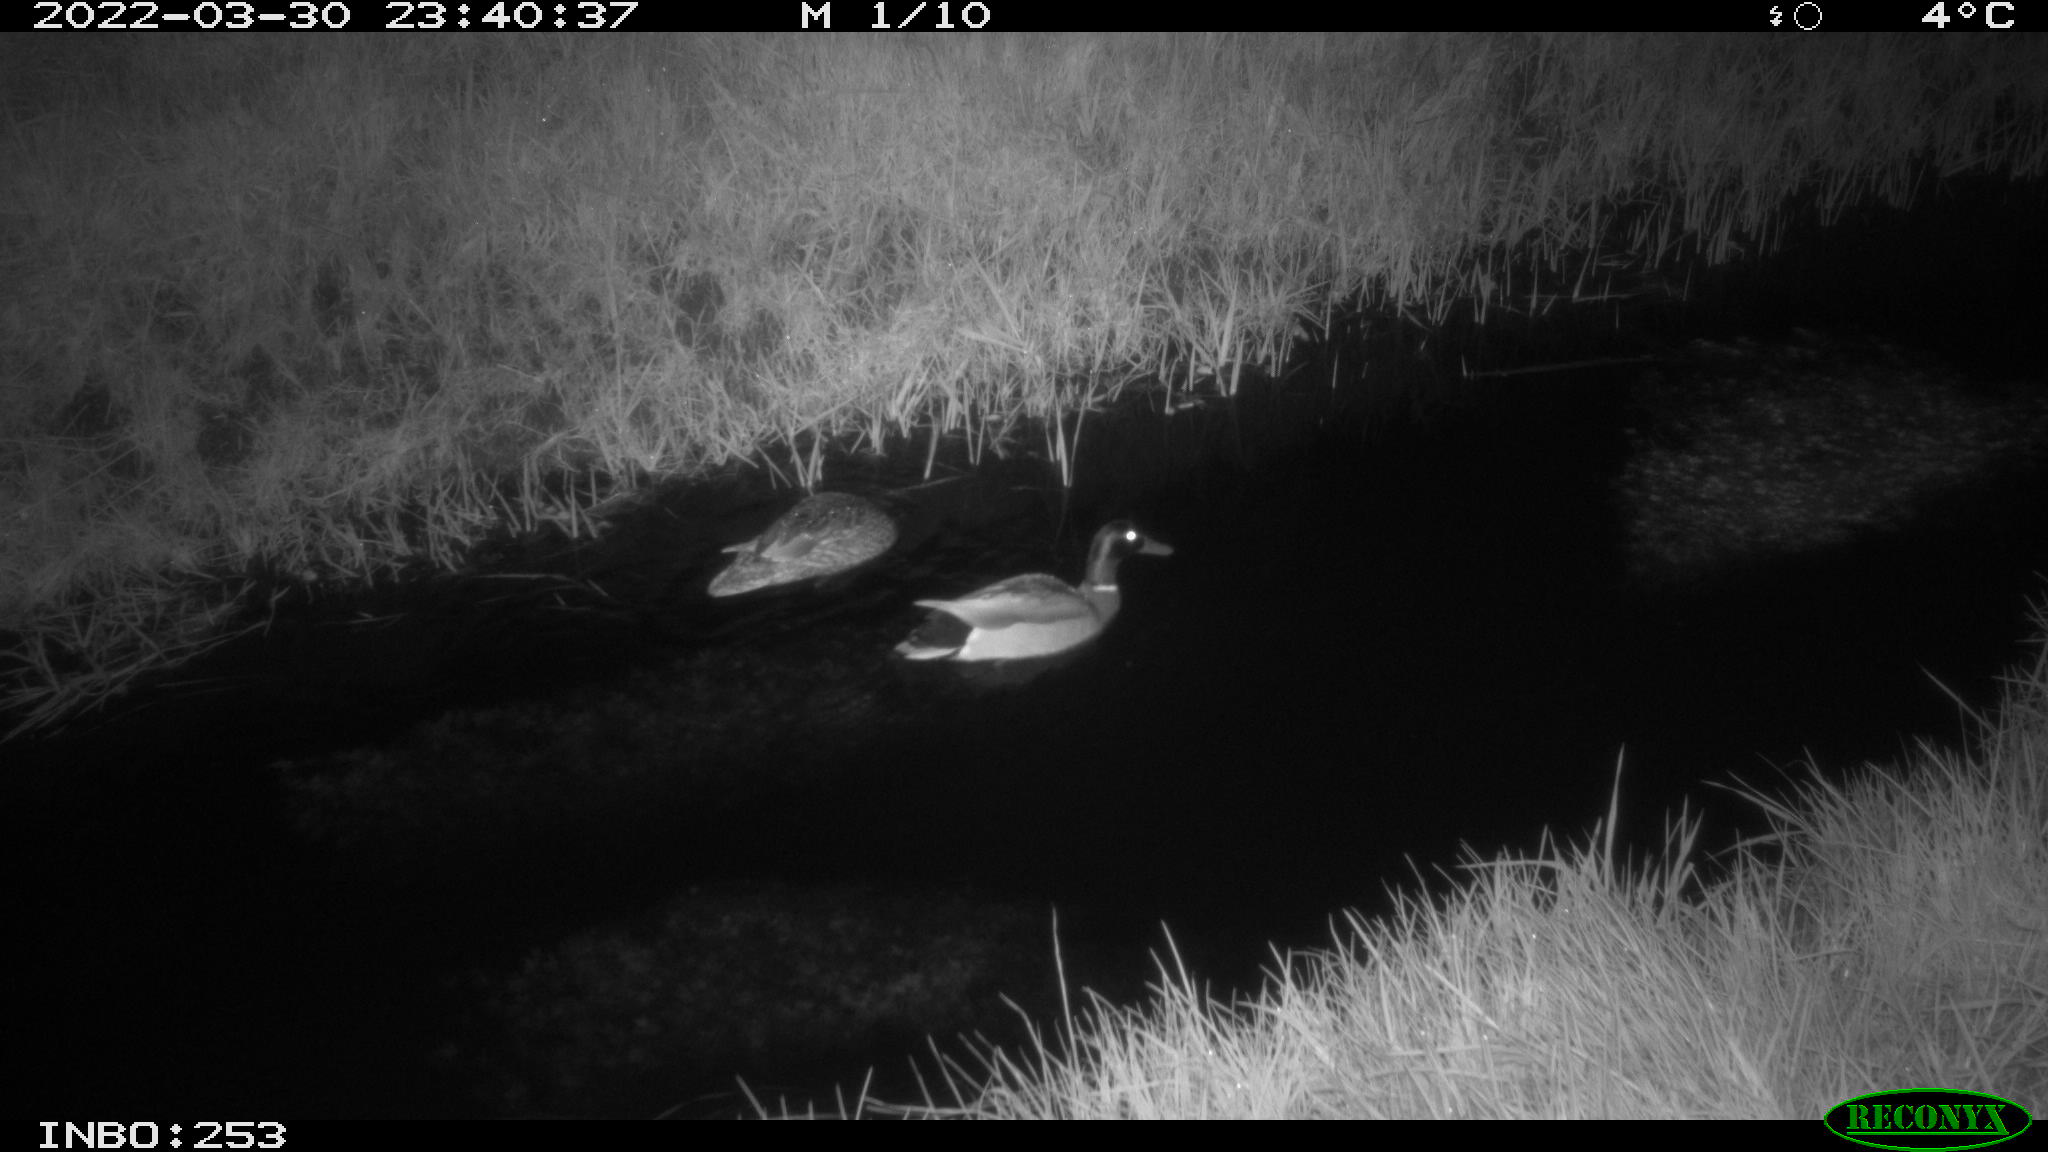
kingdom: Animalia
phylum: Chordata
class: Aves
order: Anseriformes
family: Anatidae
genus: Anas
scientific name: Anas platyrhynchos
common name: Mallard
